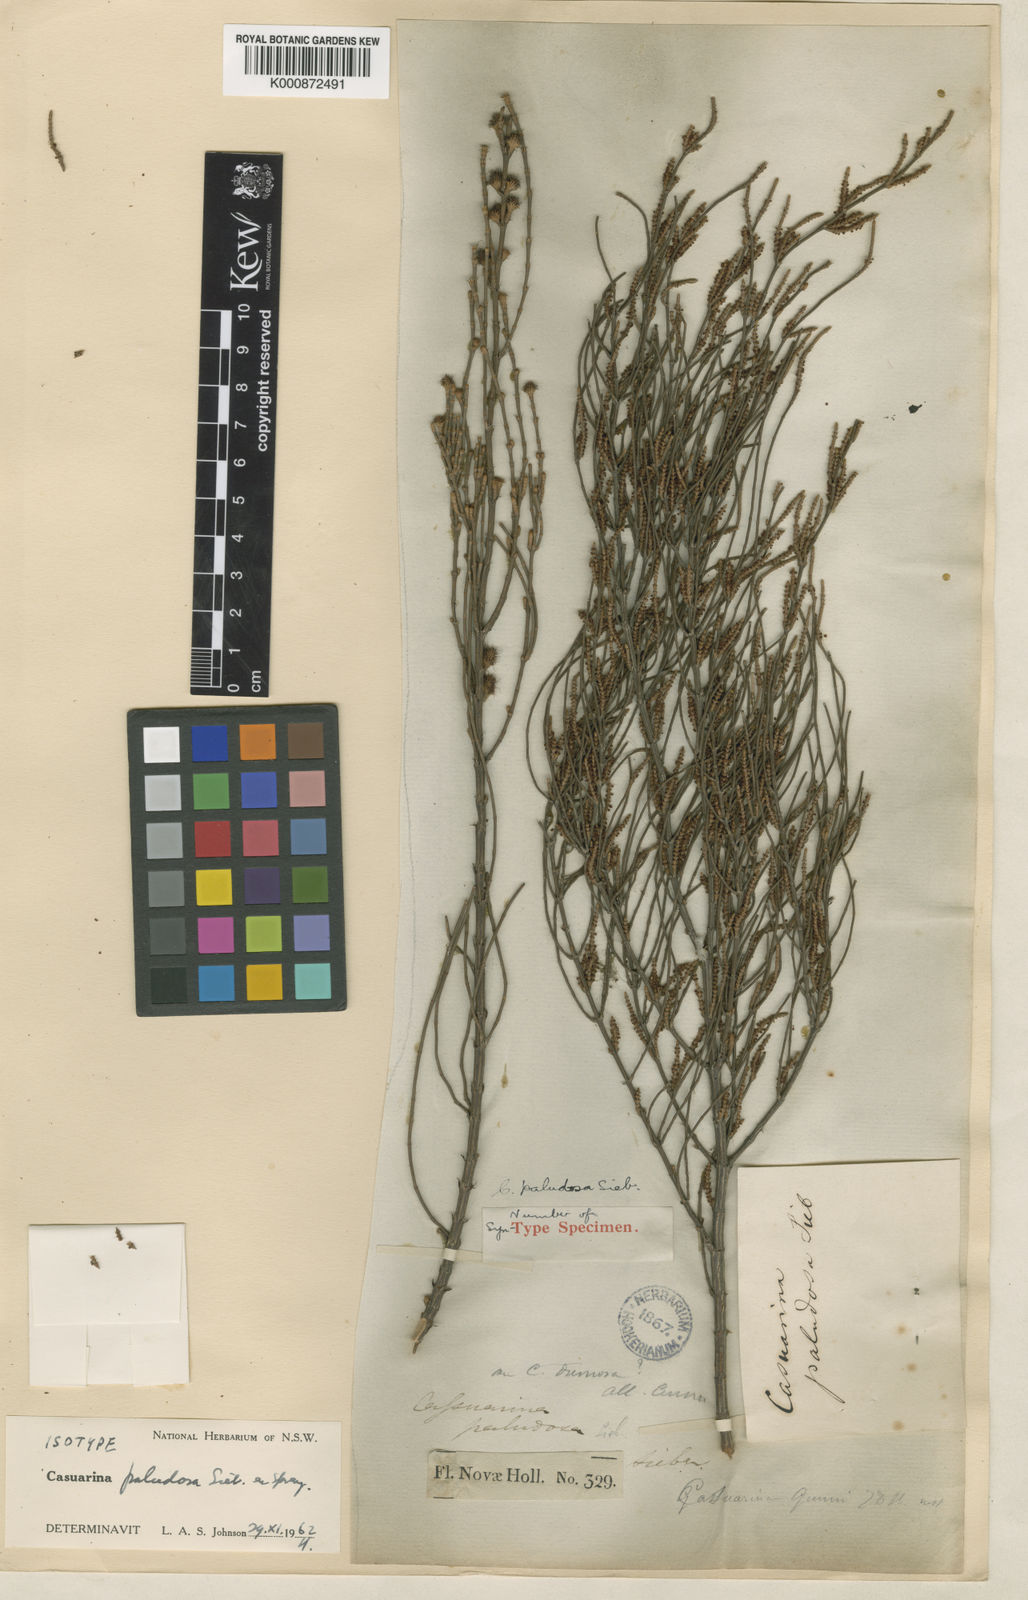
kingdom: Plantae
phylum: Tracheophyta
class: Magnoliopsida
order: Fagales
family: Casuarinaceae
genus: Allocasuarina
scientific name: Allocasuarina paludosa
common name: Scrub she-oak
